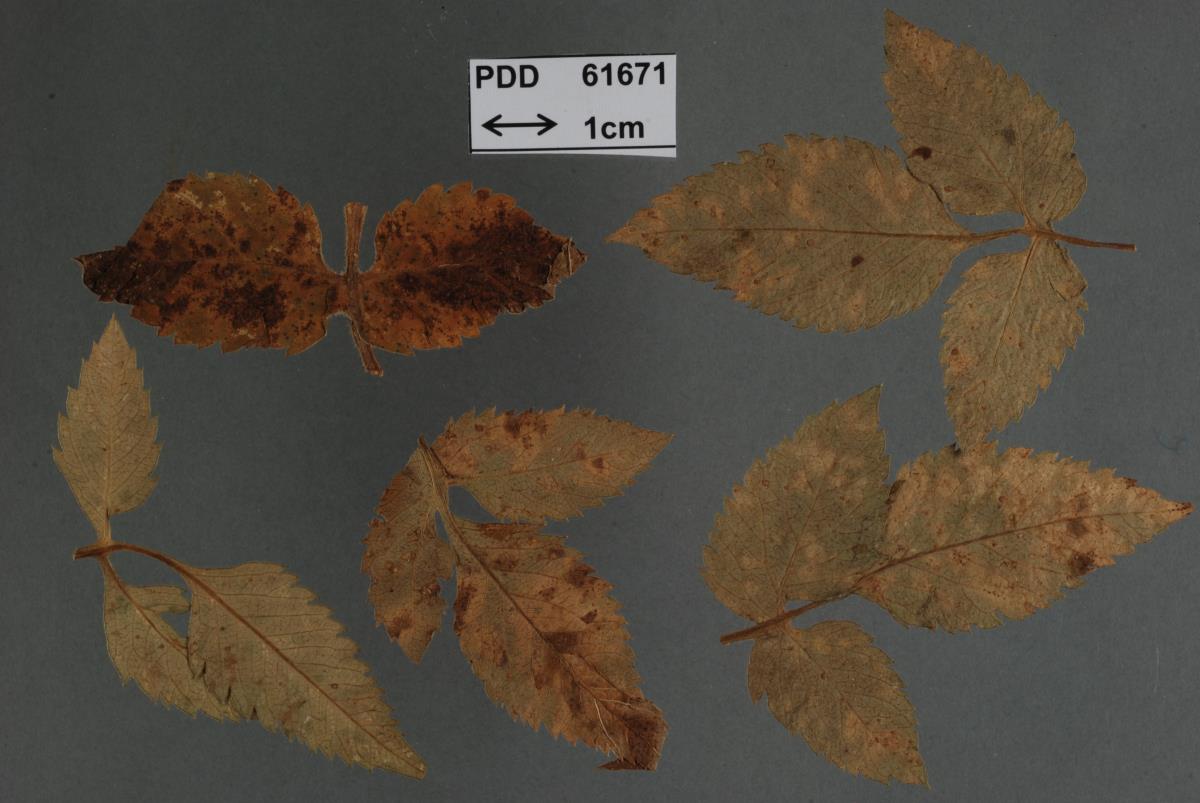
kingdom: Fungi
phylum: Ascomycota
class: Sordariomycetes
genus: Stegophorella
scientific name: Stegophorella lagerheimii
